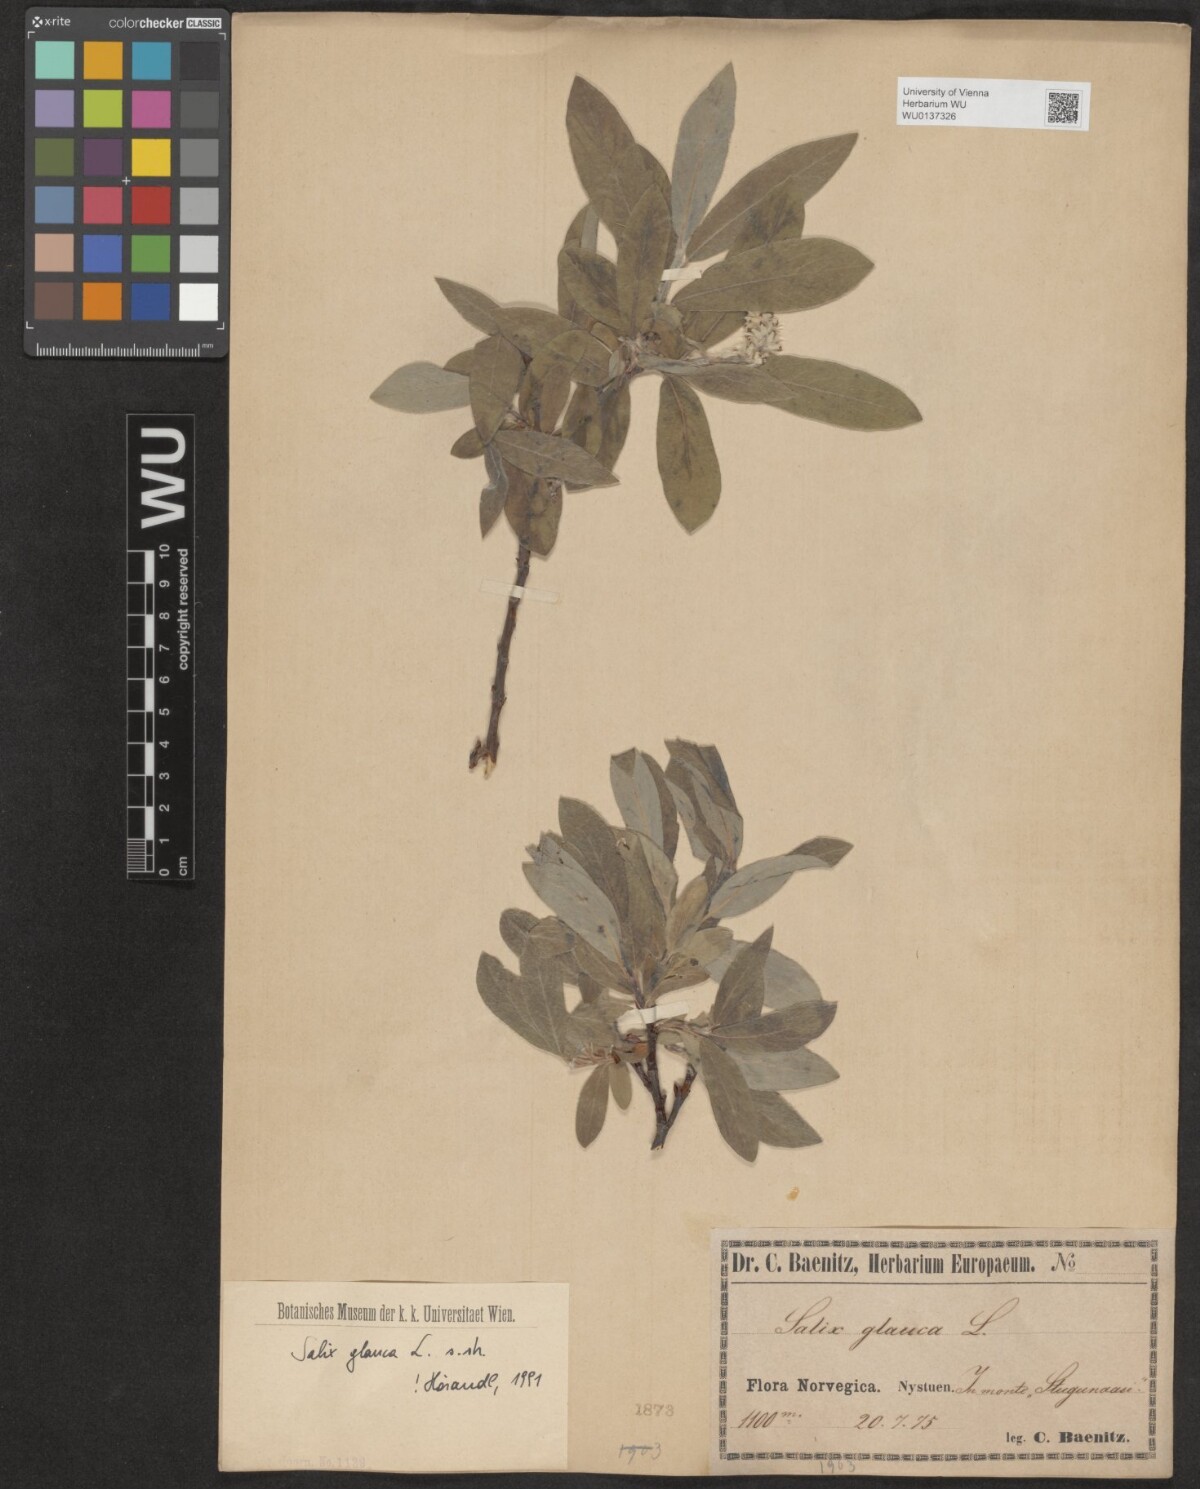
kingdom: Plantae
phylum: Tracheophyta
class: Magnoliopsida
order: Malpighiales
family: Salicaceae
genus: Salix
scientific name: Salix glauca
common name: Glaucous willow
